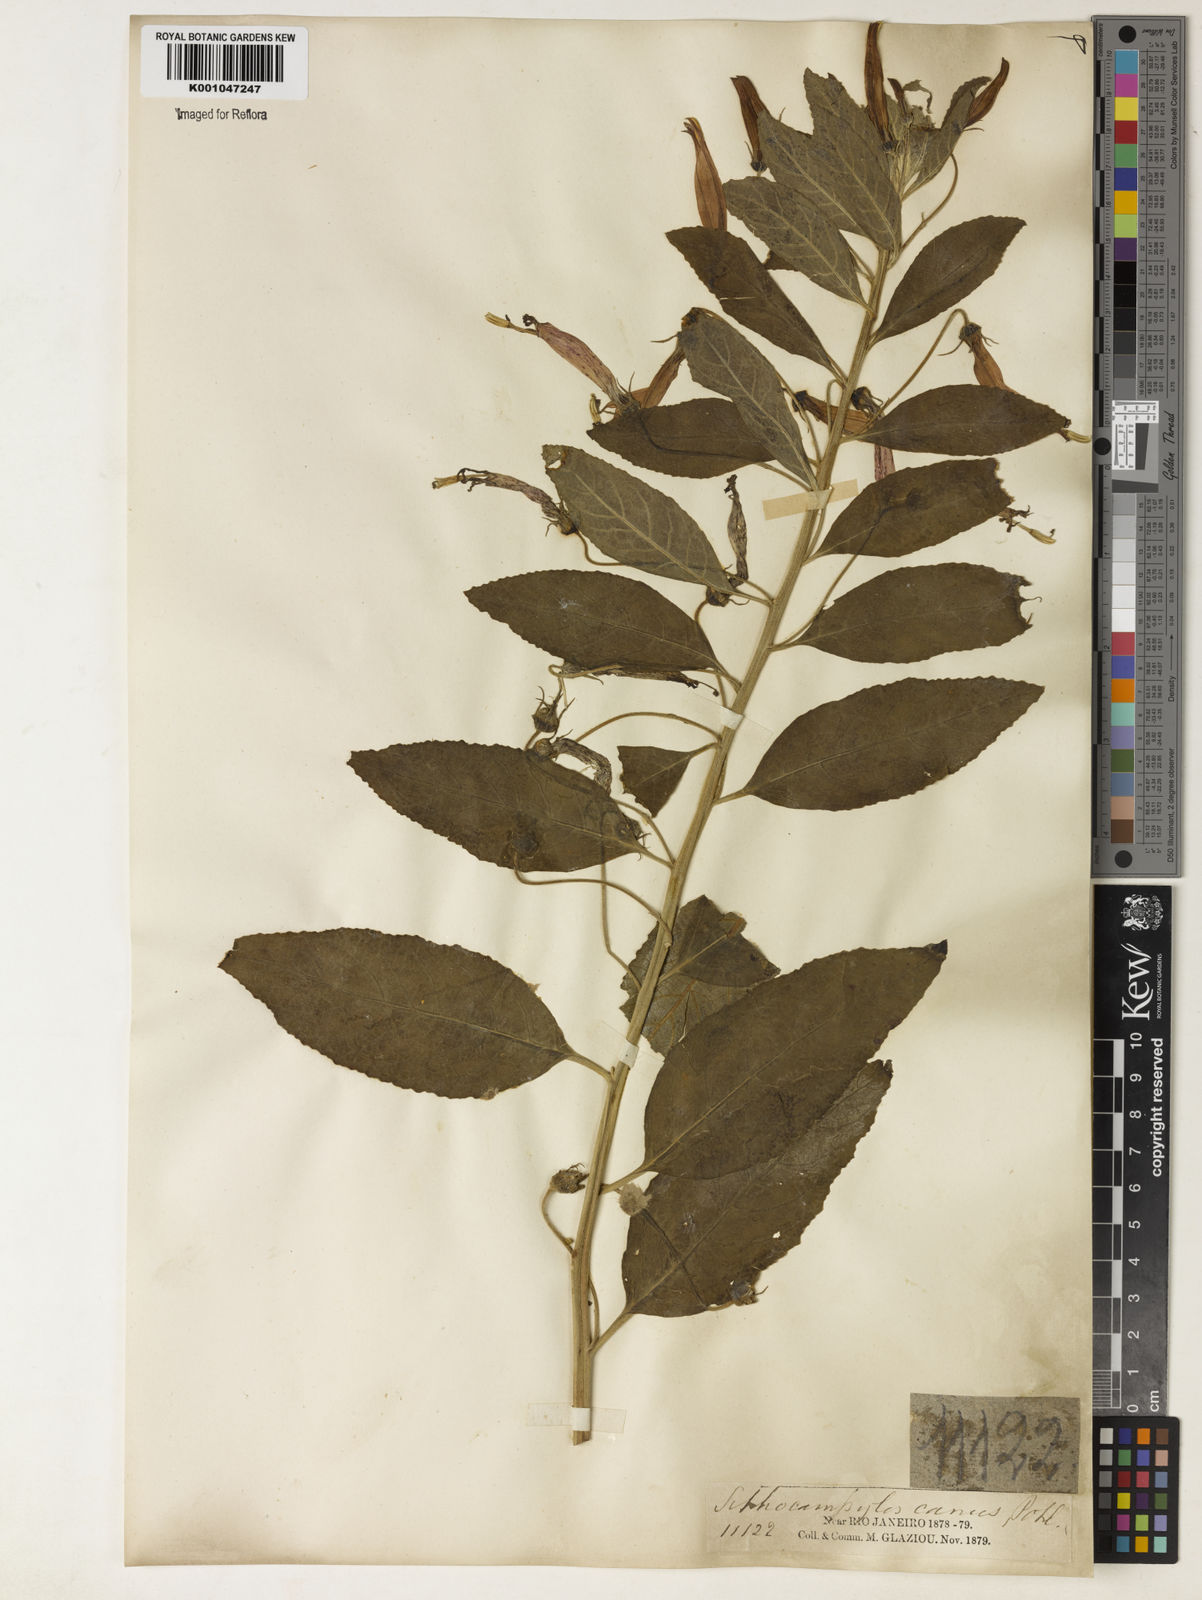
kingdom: Plantae
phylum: Tracheophyta
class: Magnoliopsida
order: Asterales
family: Campanulaceae
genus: Siphocampylus
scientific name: Siphocampylus macropodus
